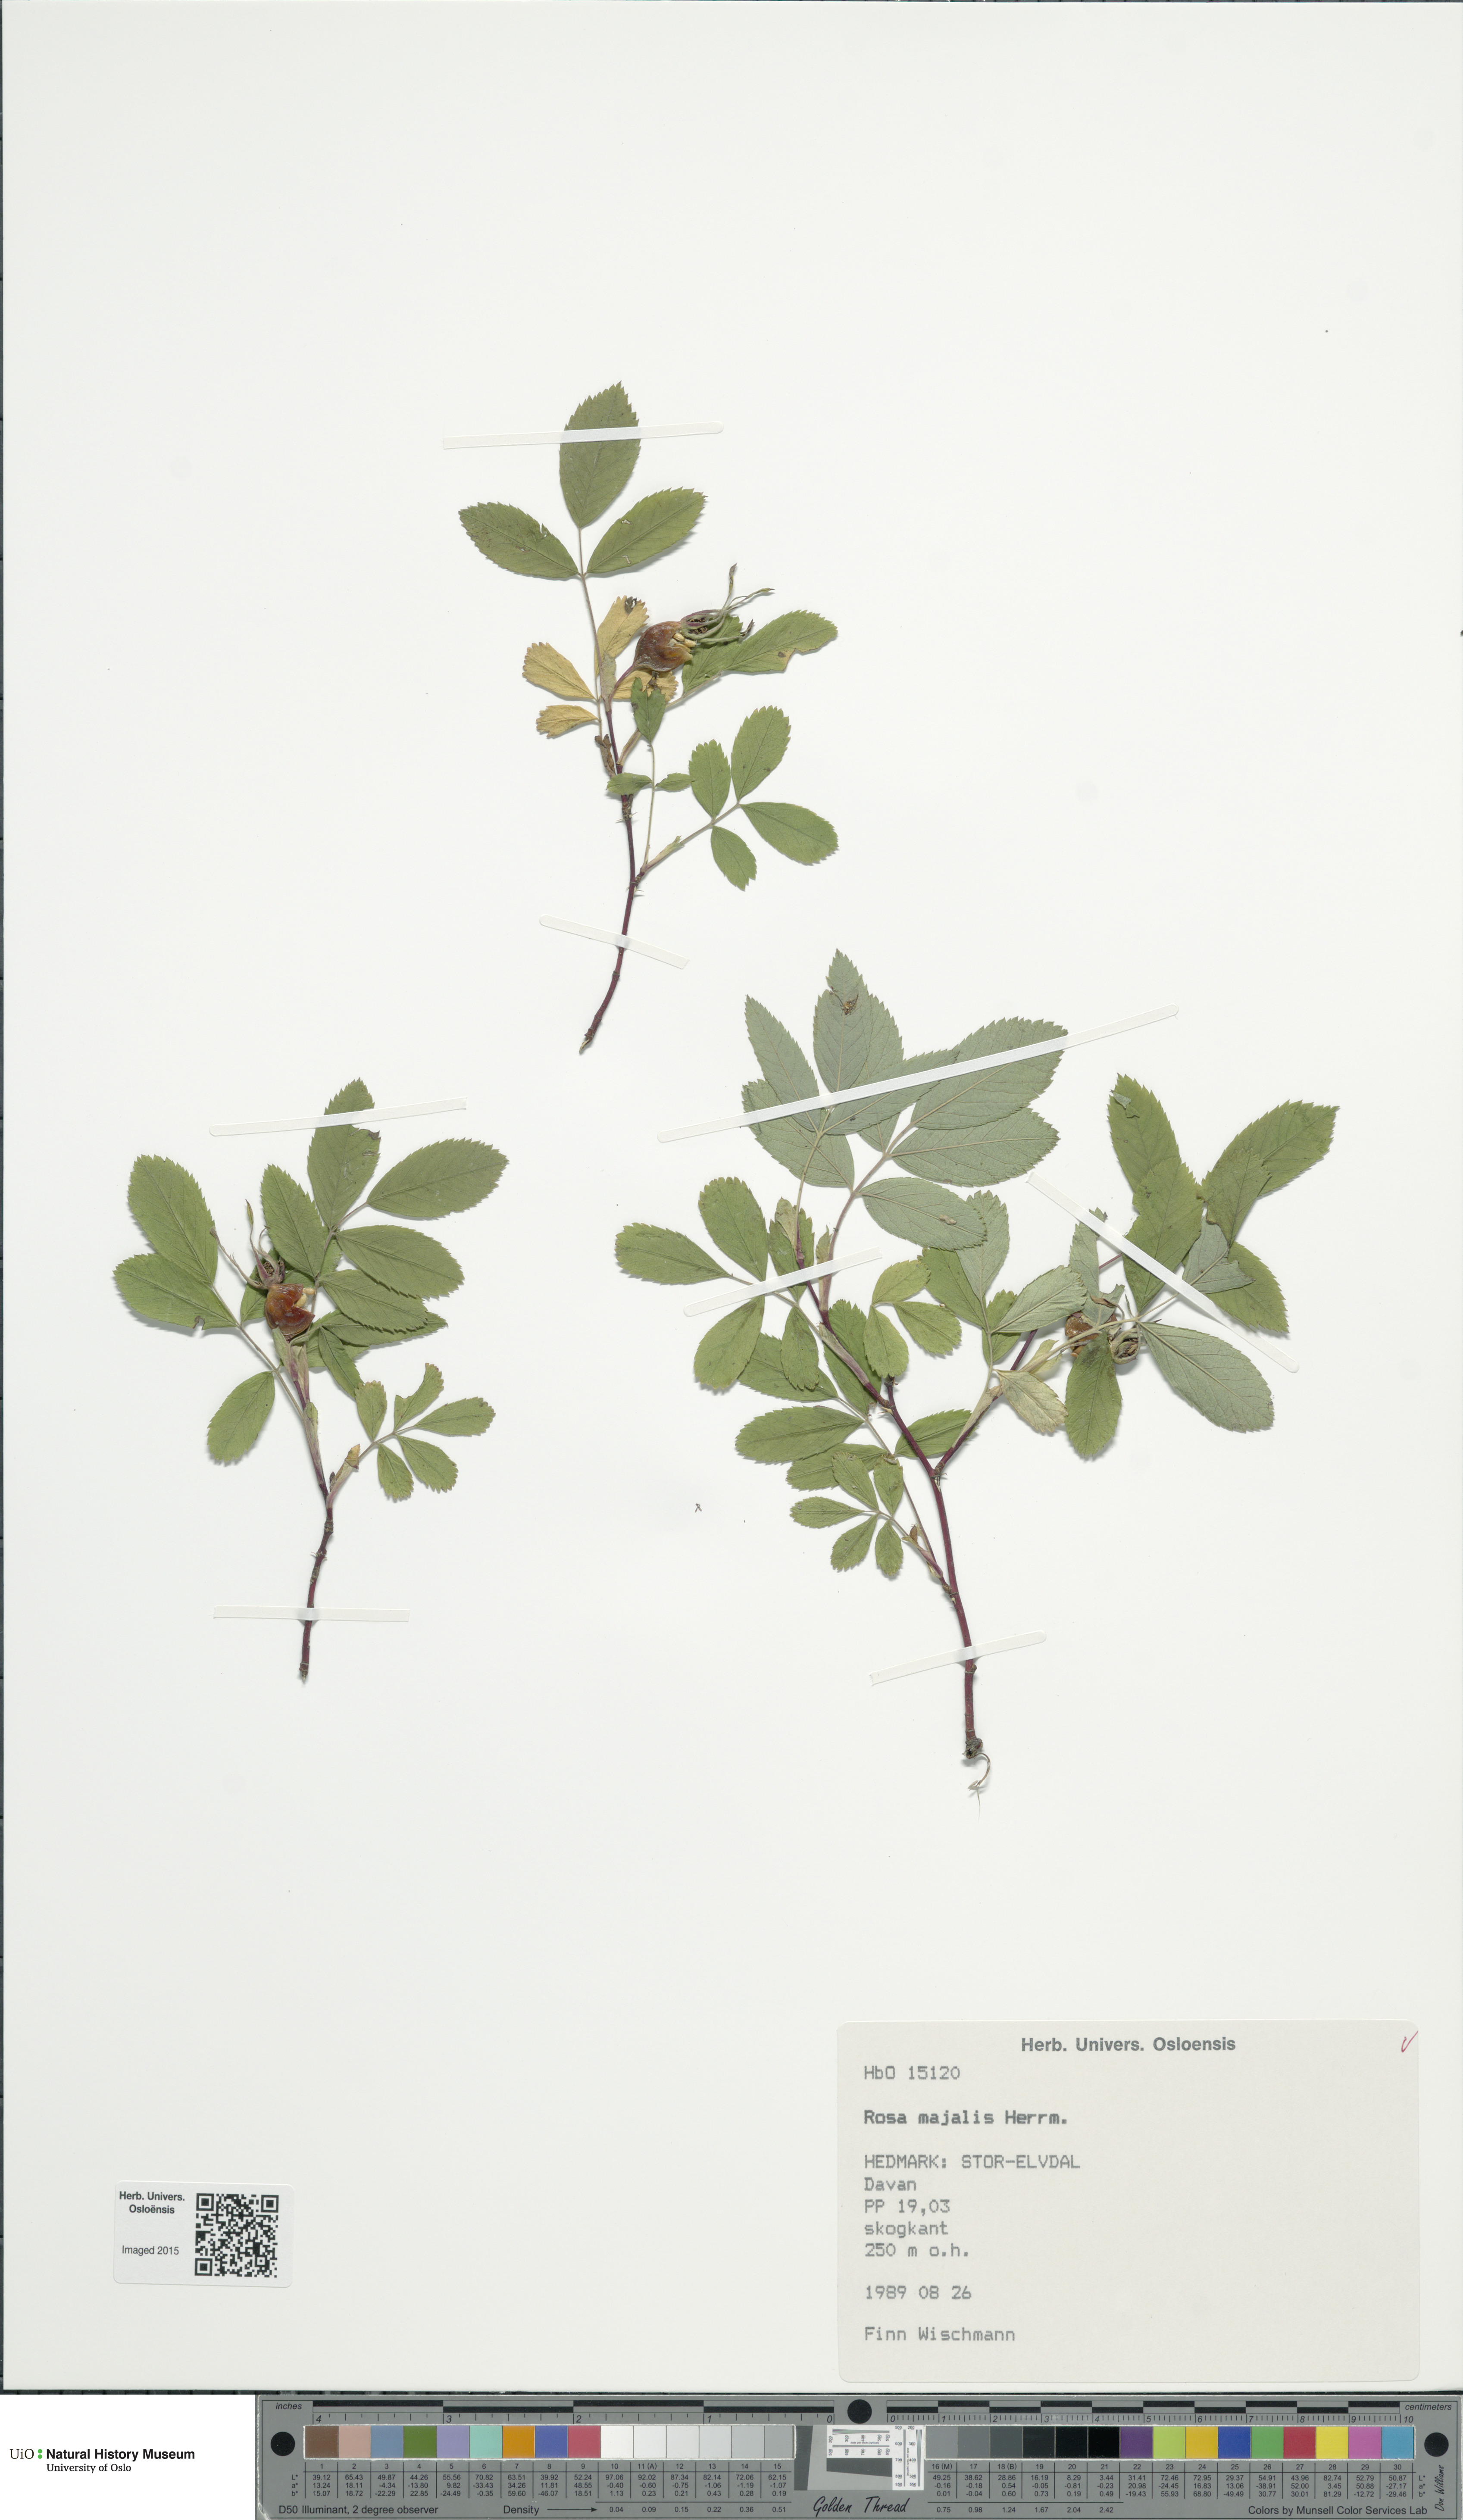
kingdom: Plantae
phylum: Tracheophyta
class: Magnoliopsida
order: Rosales
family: Rosaceae
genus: Rosa
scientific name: Rosa majalis
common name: Cinnamon rose
